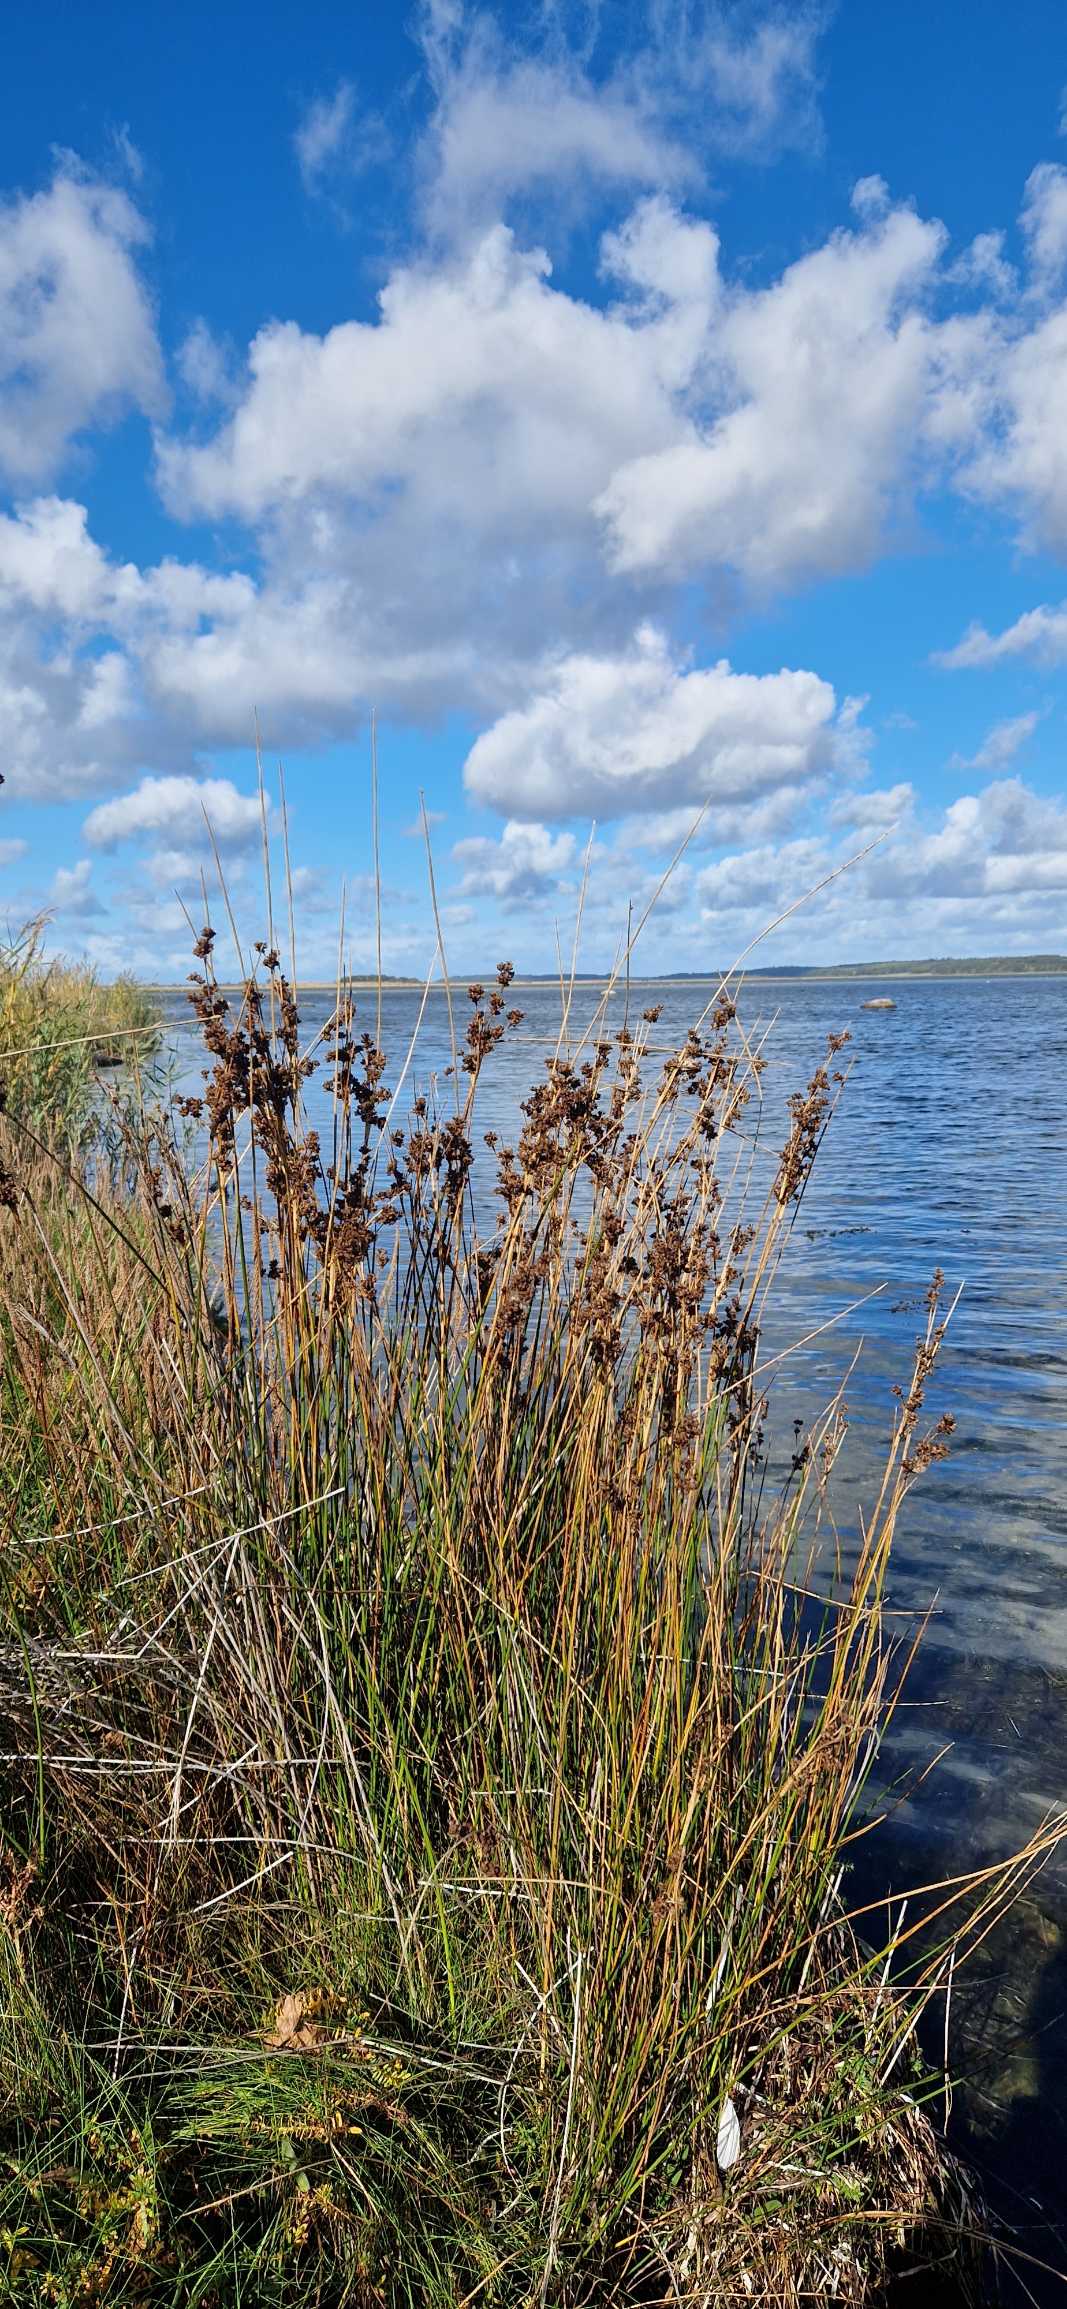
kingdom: Plantae
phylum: Tracheophyta
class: Liliopsida
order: Poales
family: Juncaceae
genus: Juncus
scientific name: Juncus maritimus
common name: Strand-siv
